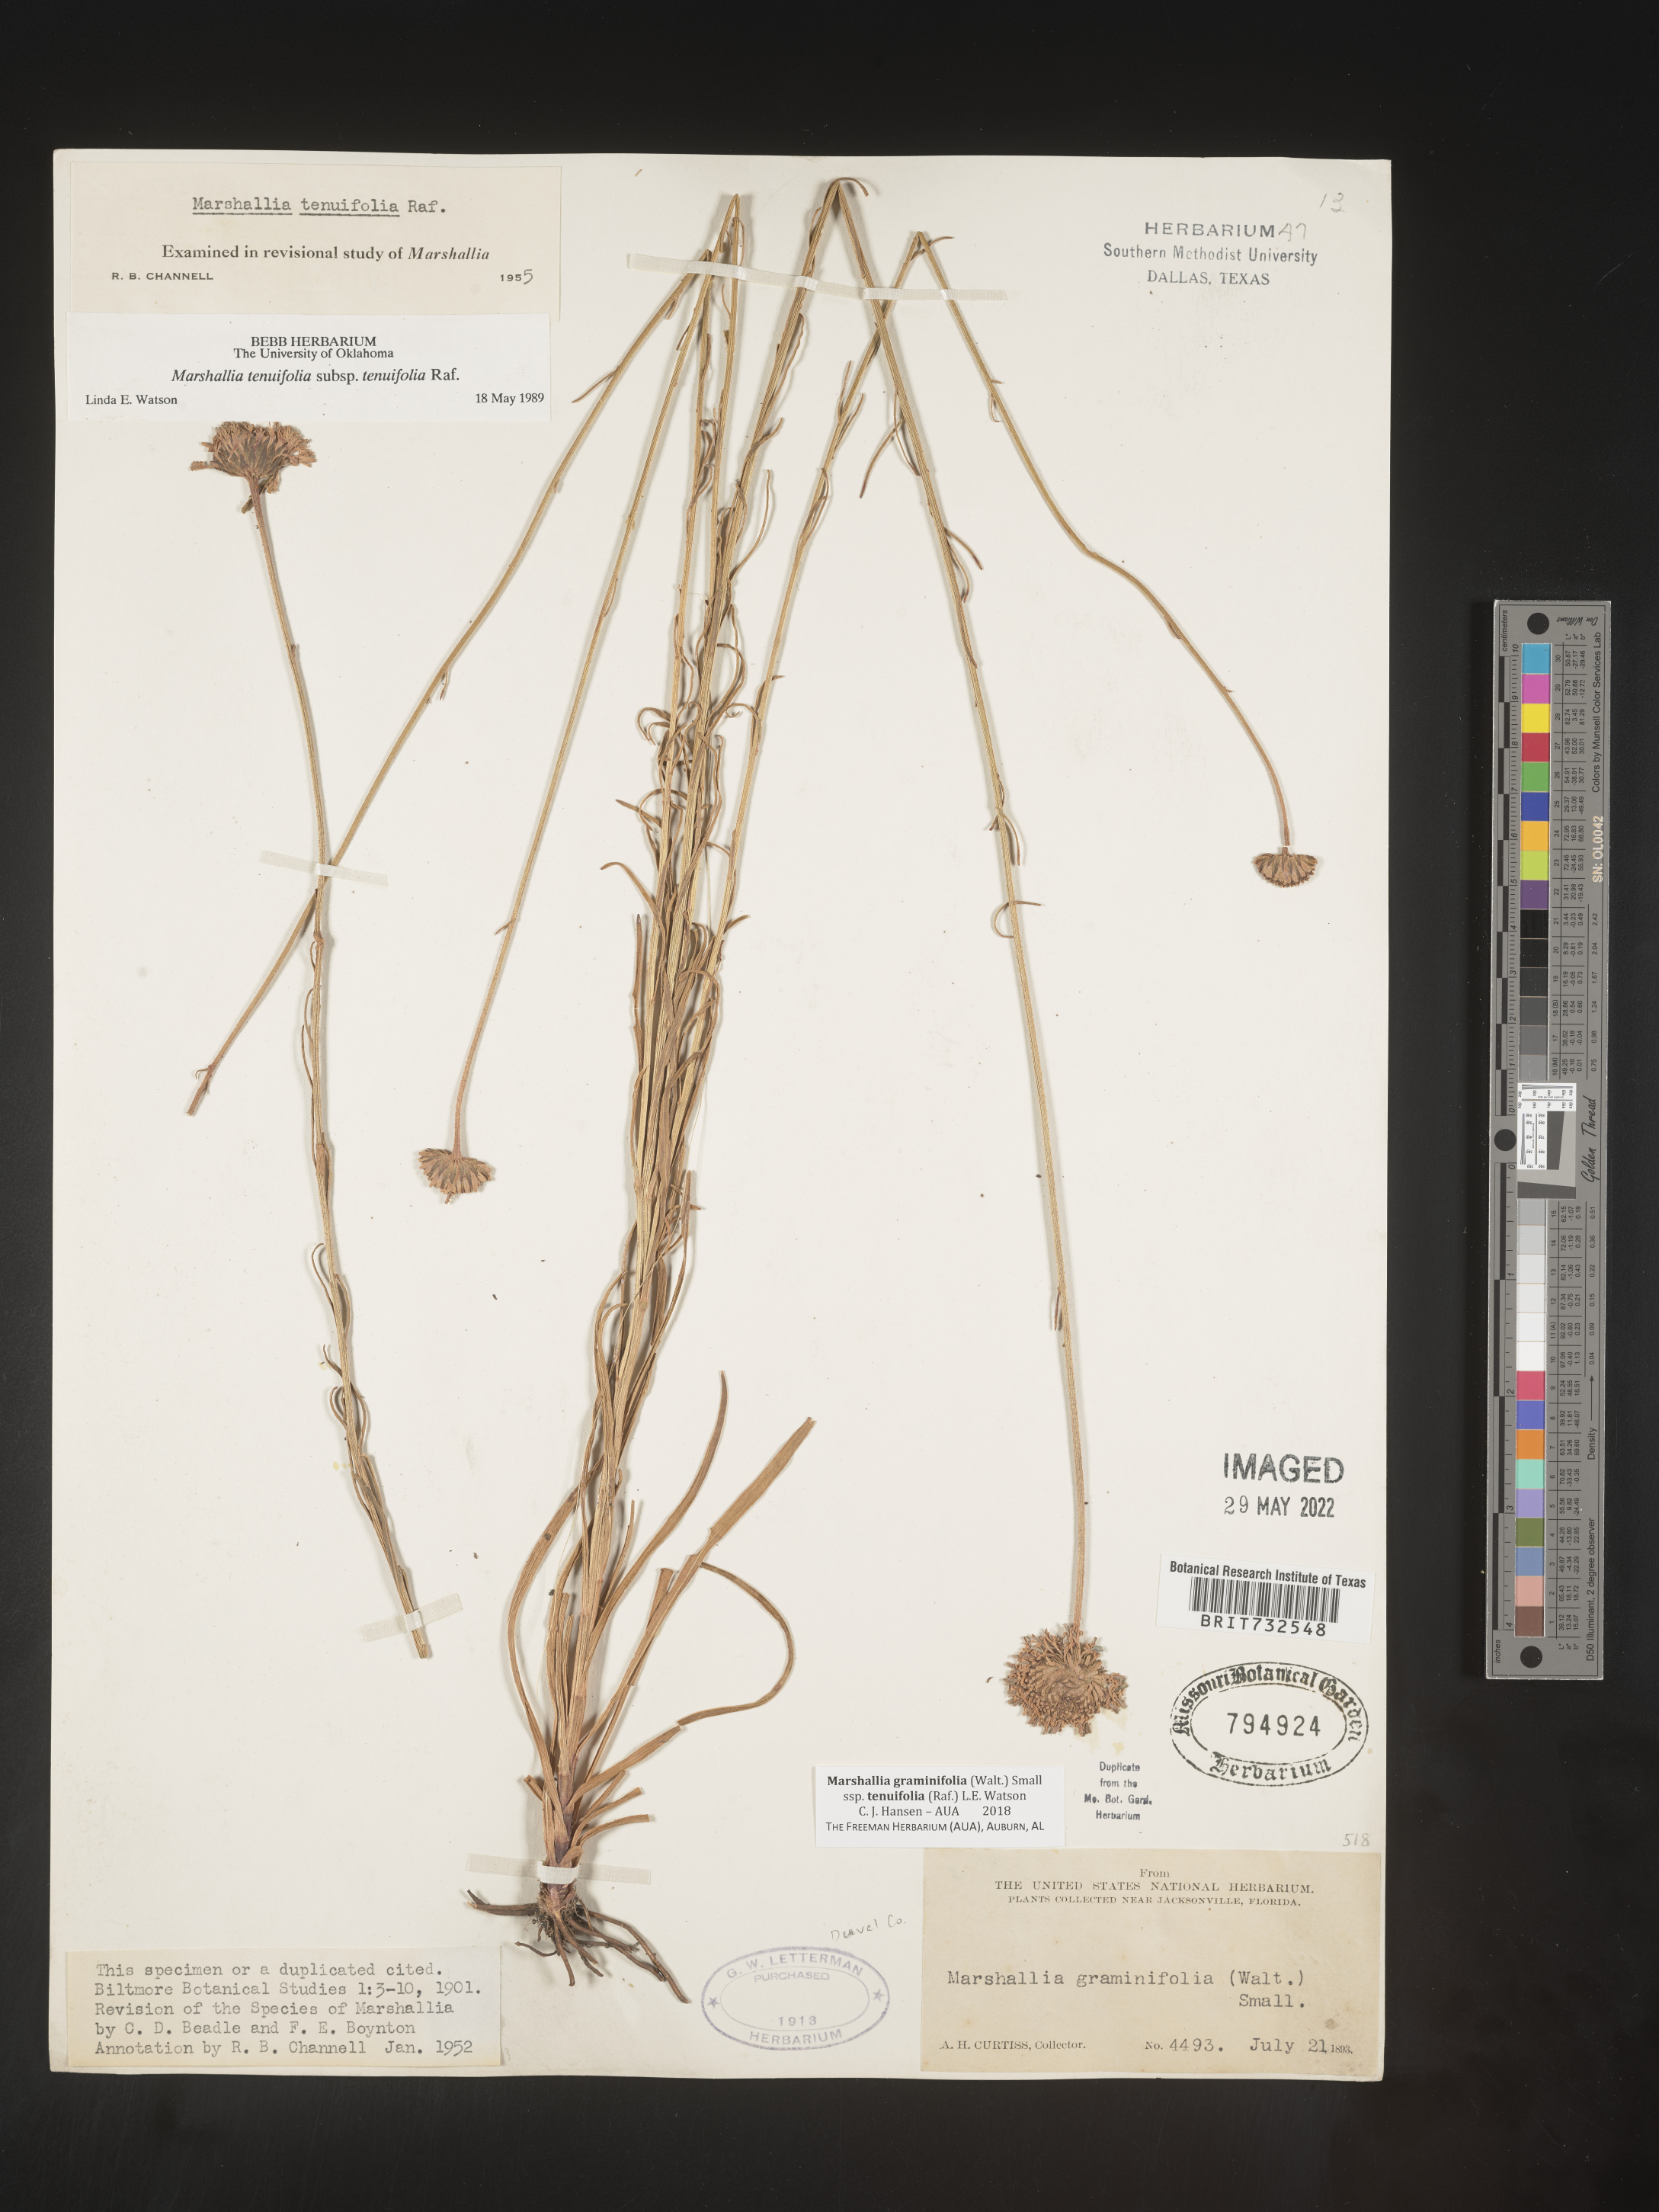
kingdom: Plantae
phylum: Tracheophyta
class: Magnoliopsida
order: Asterales
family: Asteraceae
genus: Marshallia
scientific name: Marshallia graminifolia
